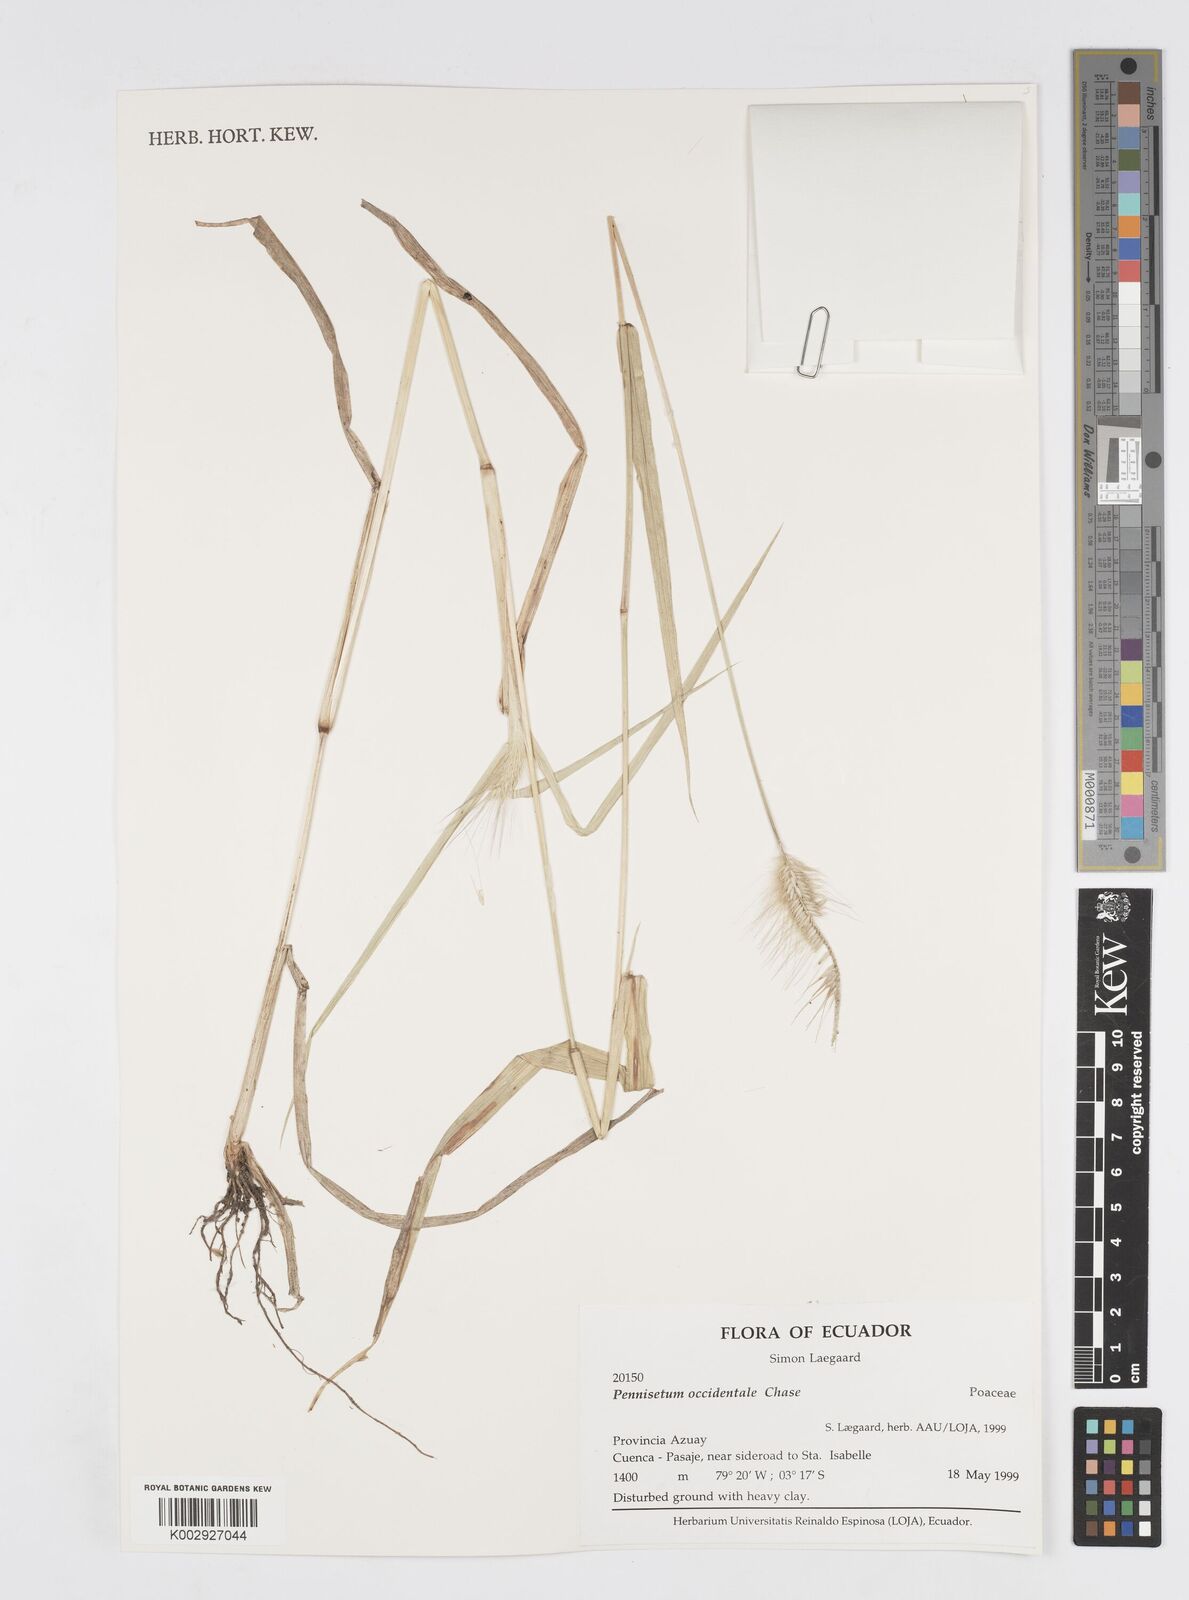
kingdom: Plantae
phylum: Tracheophyta
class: Liliopsida
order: Poales
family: Poaceae
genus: Cenchrus
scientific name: Cenchrus occidentalis
